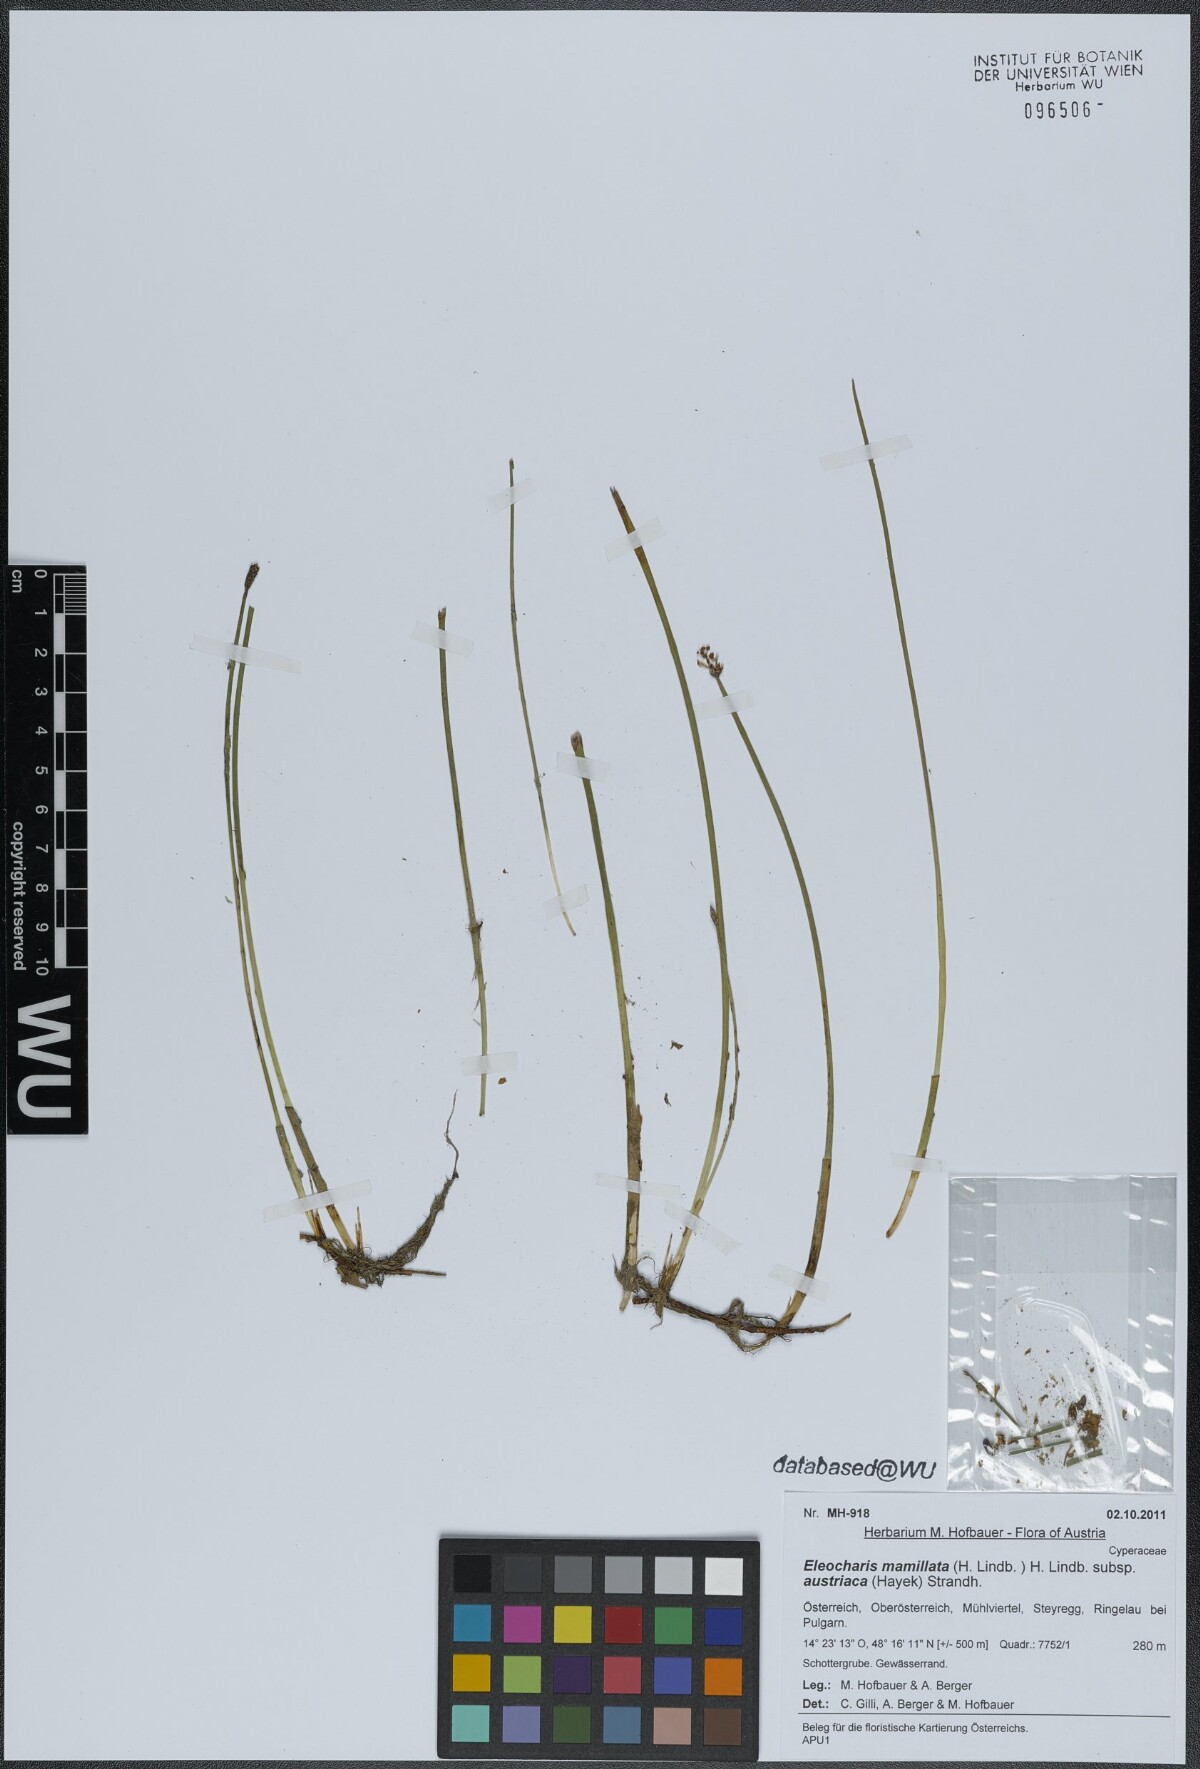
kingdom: Plantae
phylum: Tracheophyta
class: Liliopsida
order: Poales
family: Cyperaceae
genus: Eleocharis
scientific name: Eleocharis mamillata
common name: Northern spike-rush
